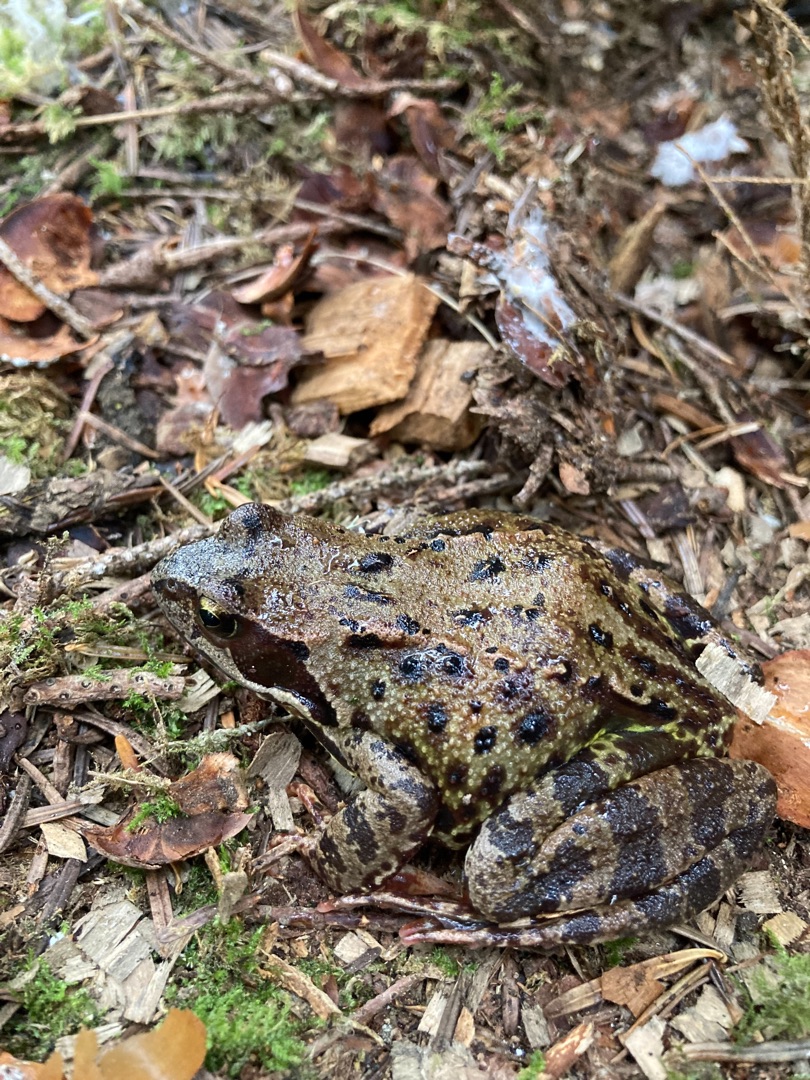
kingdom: Animalia
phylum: Chordata
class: Amphibia
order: Anura
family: Ranidae
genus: Rana
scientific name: Rana temporaria
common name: Butsnudet frø
